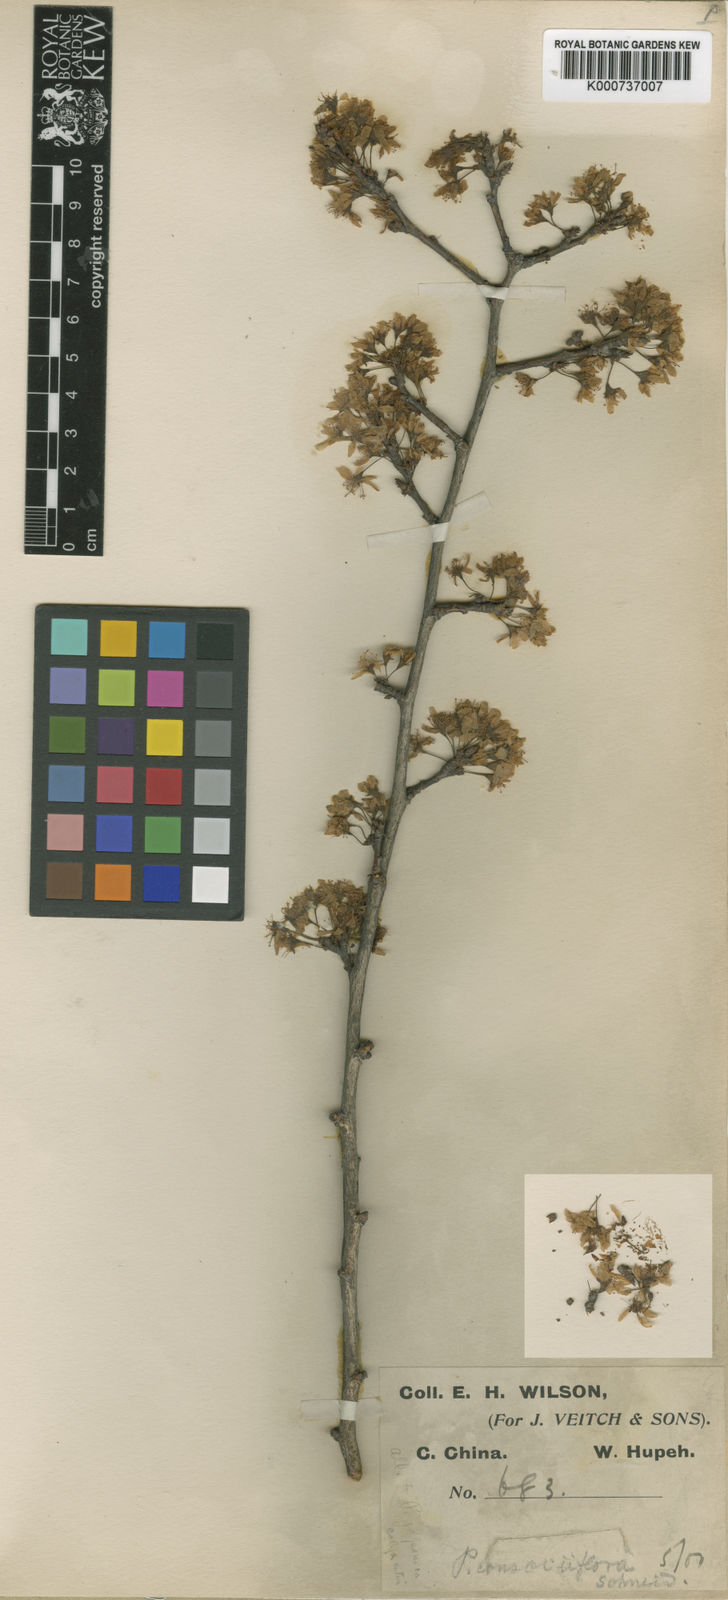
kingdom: Plantae
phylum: Tracheophyta
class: Magnoliopsida
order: Rosales
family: Rosaceae
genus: Prunus
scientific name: Prunus japonica
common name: Chinese bush cherry
